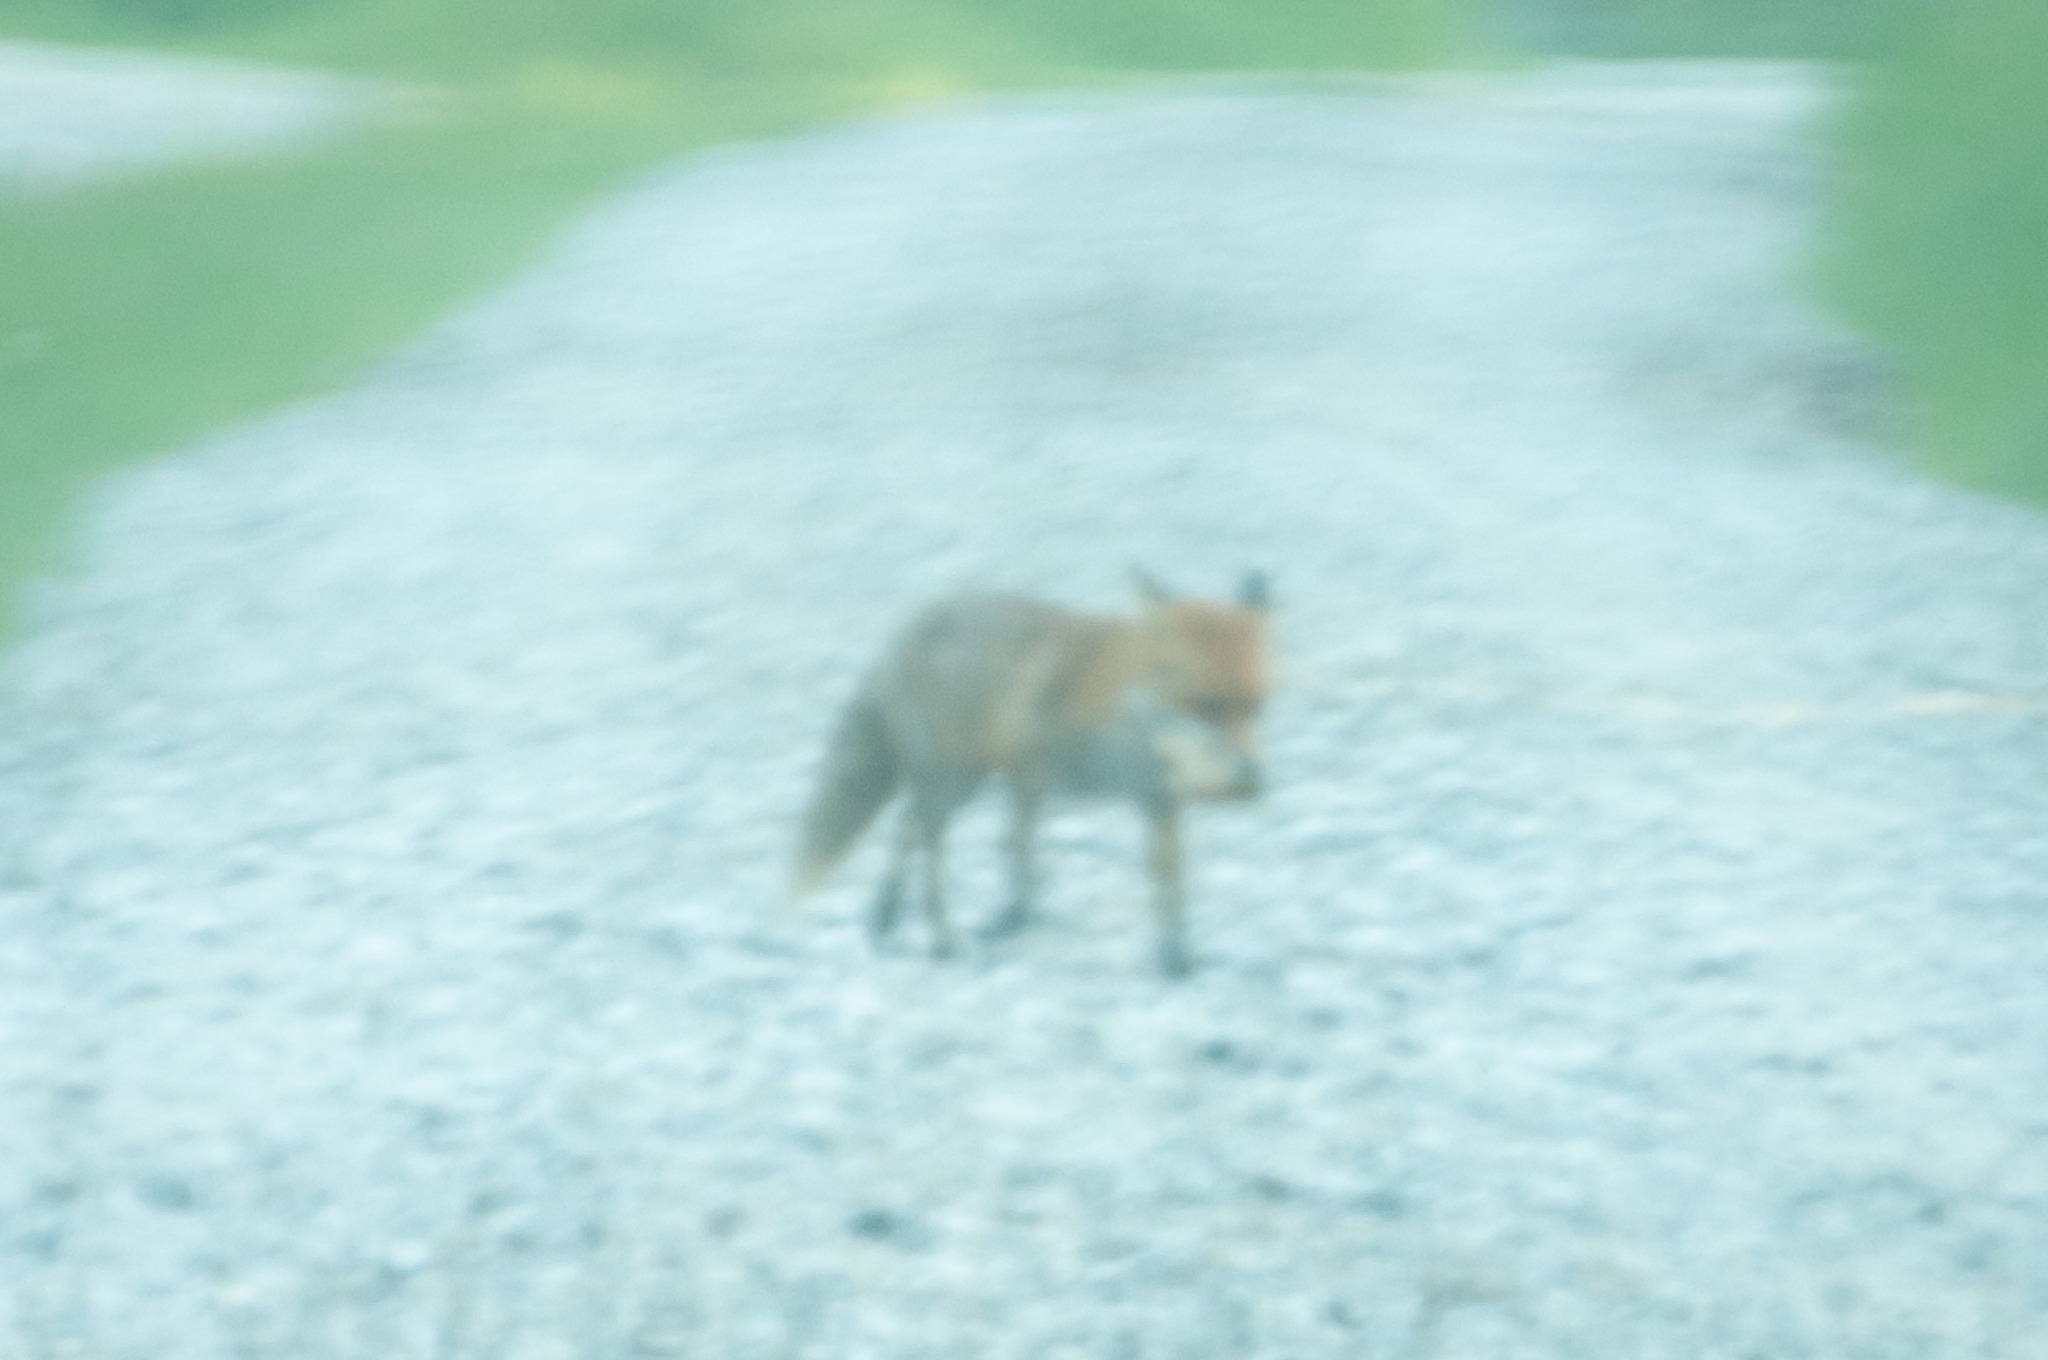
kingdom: Animalia
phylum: Chordata
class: Mammalia
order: Carnivora
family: Canidae
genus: Vulpes
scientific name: Vulpes vulpes
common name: Ræv
